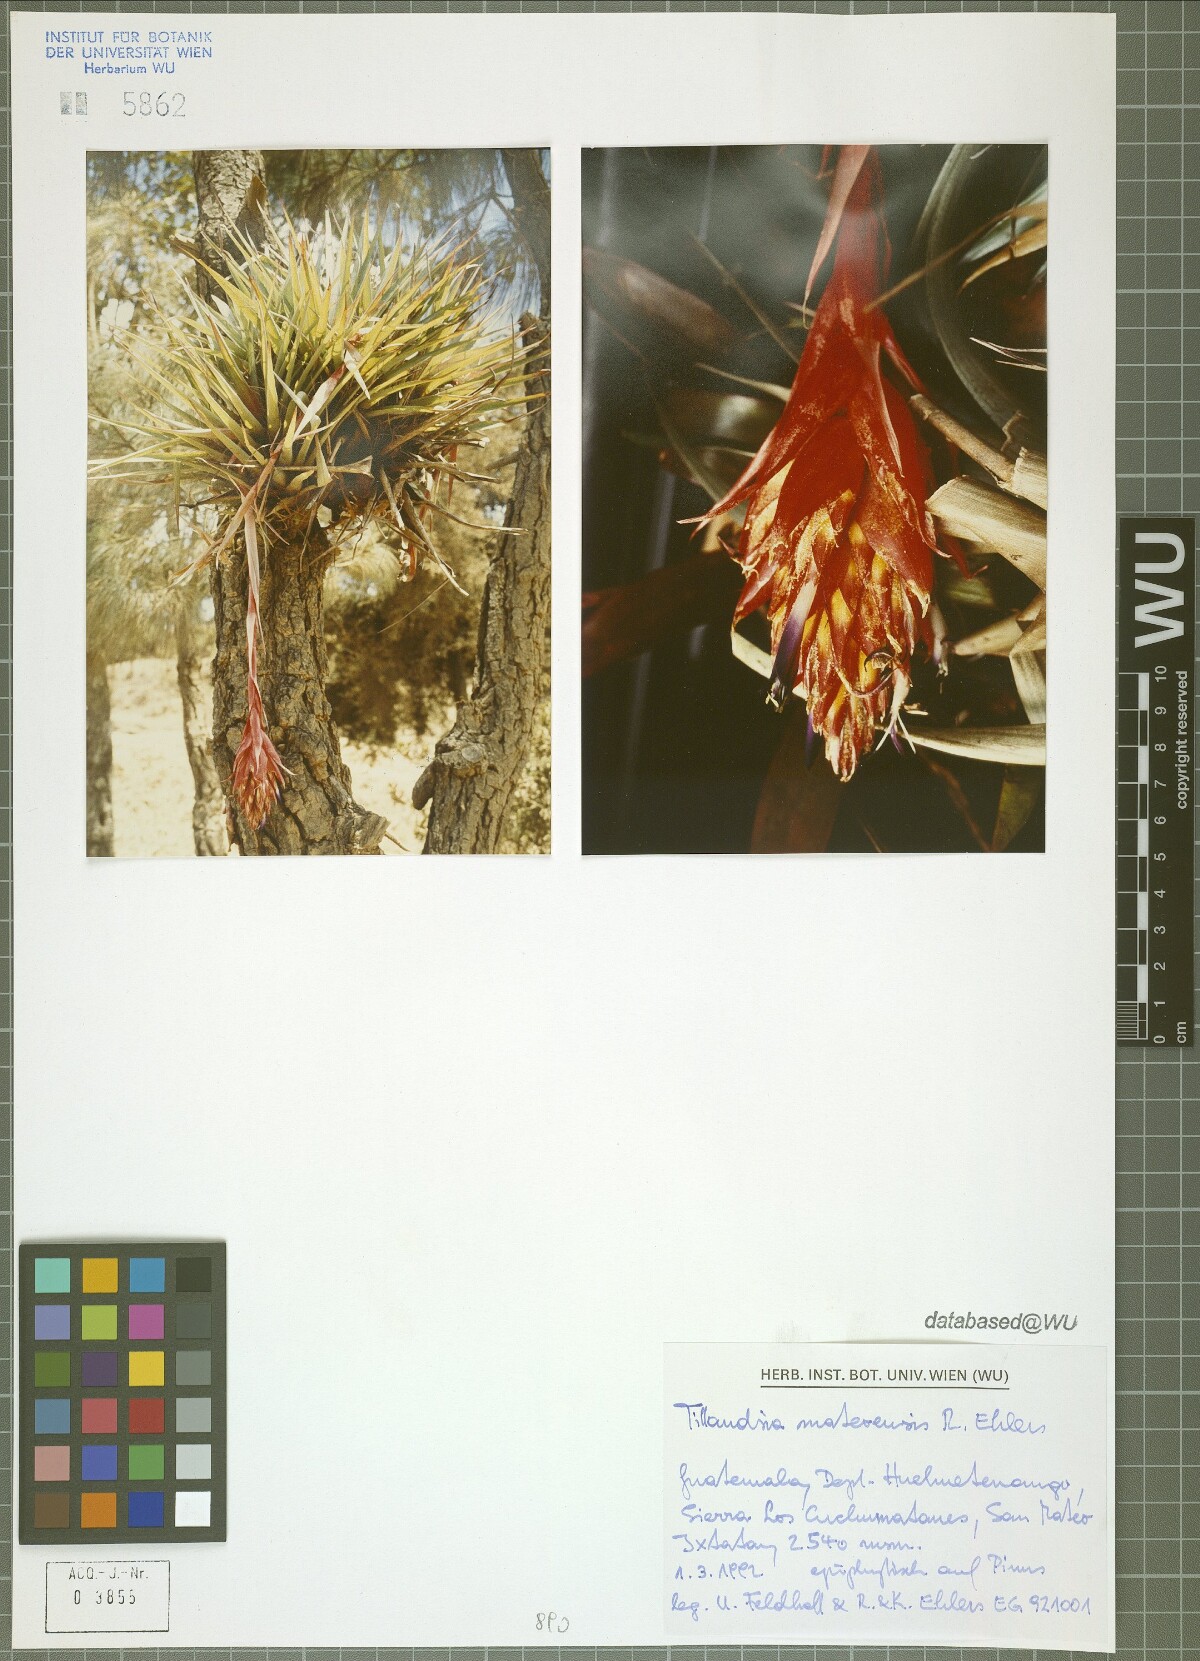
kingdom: Plantae
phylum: Tracheophyta
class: Liliopsida
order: Poales
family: Bromeliaceae
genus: Tillandsia
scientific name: Tillandsia mateoensis
